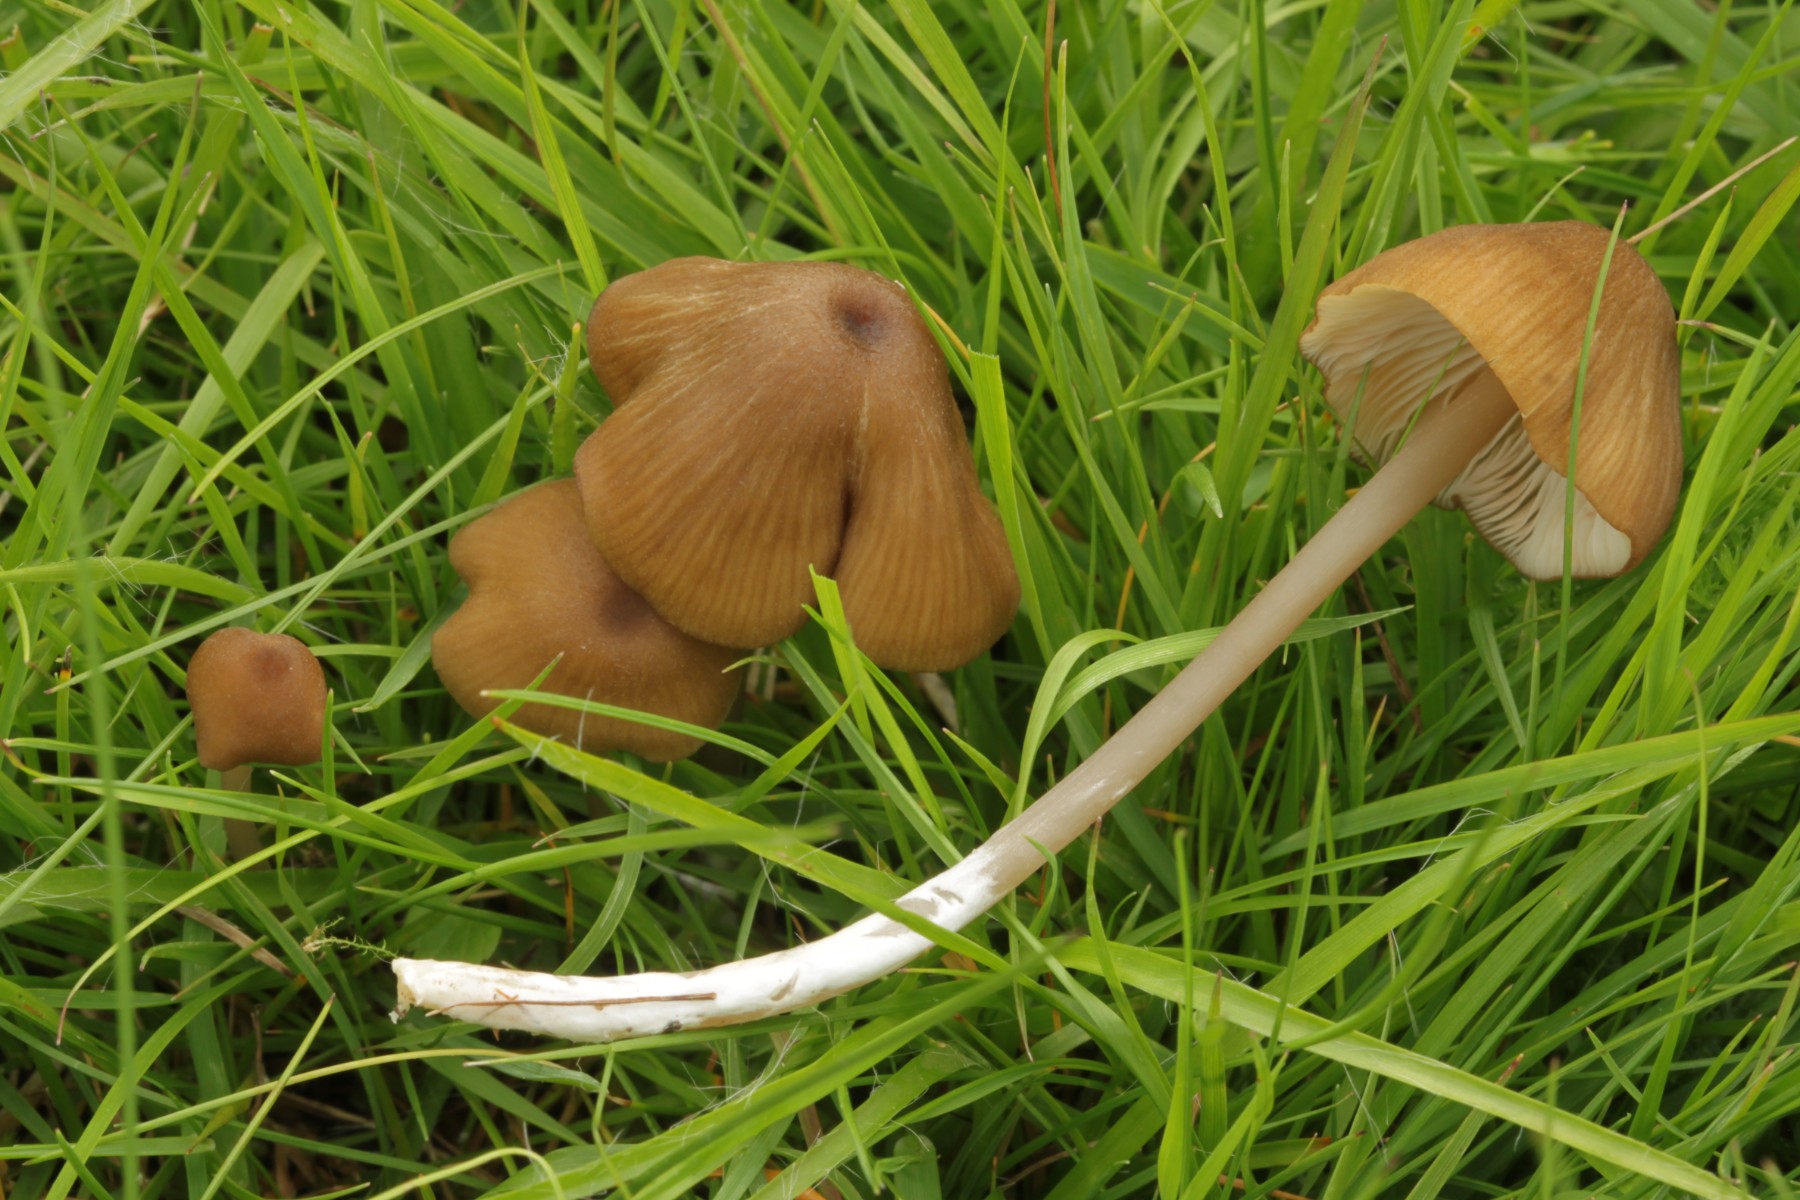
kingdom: Fungi
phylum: Basidiomycota
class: Agaricomycetes
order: Agaricales
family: Entolomataceae
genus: Entoloma
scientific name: Entoloma longistriatum
